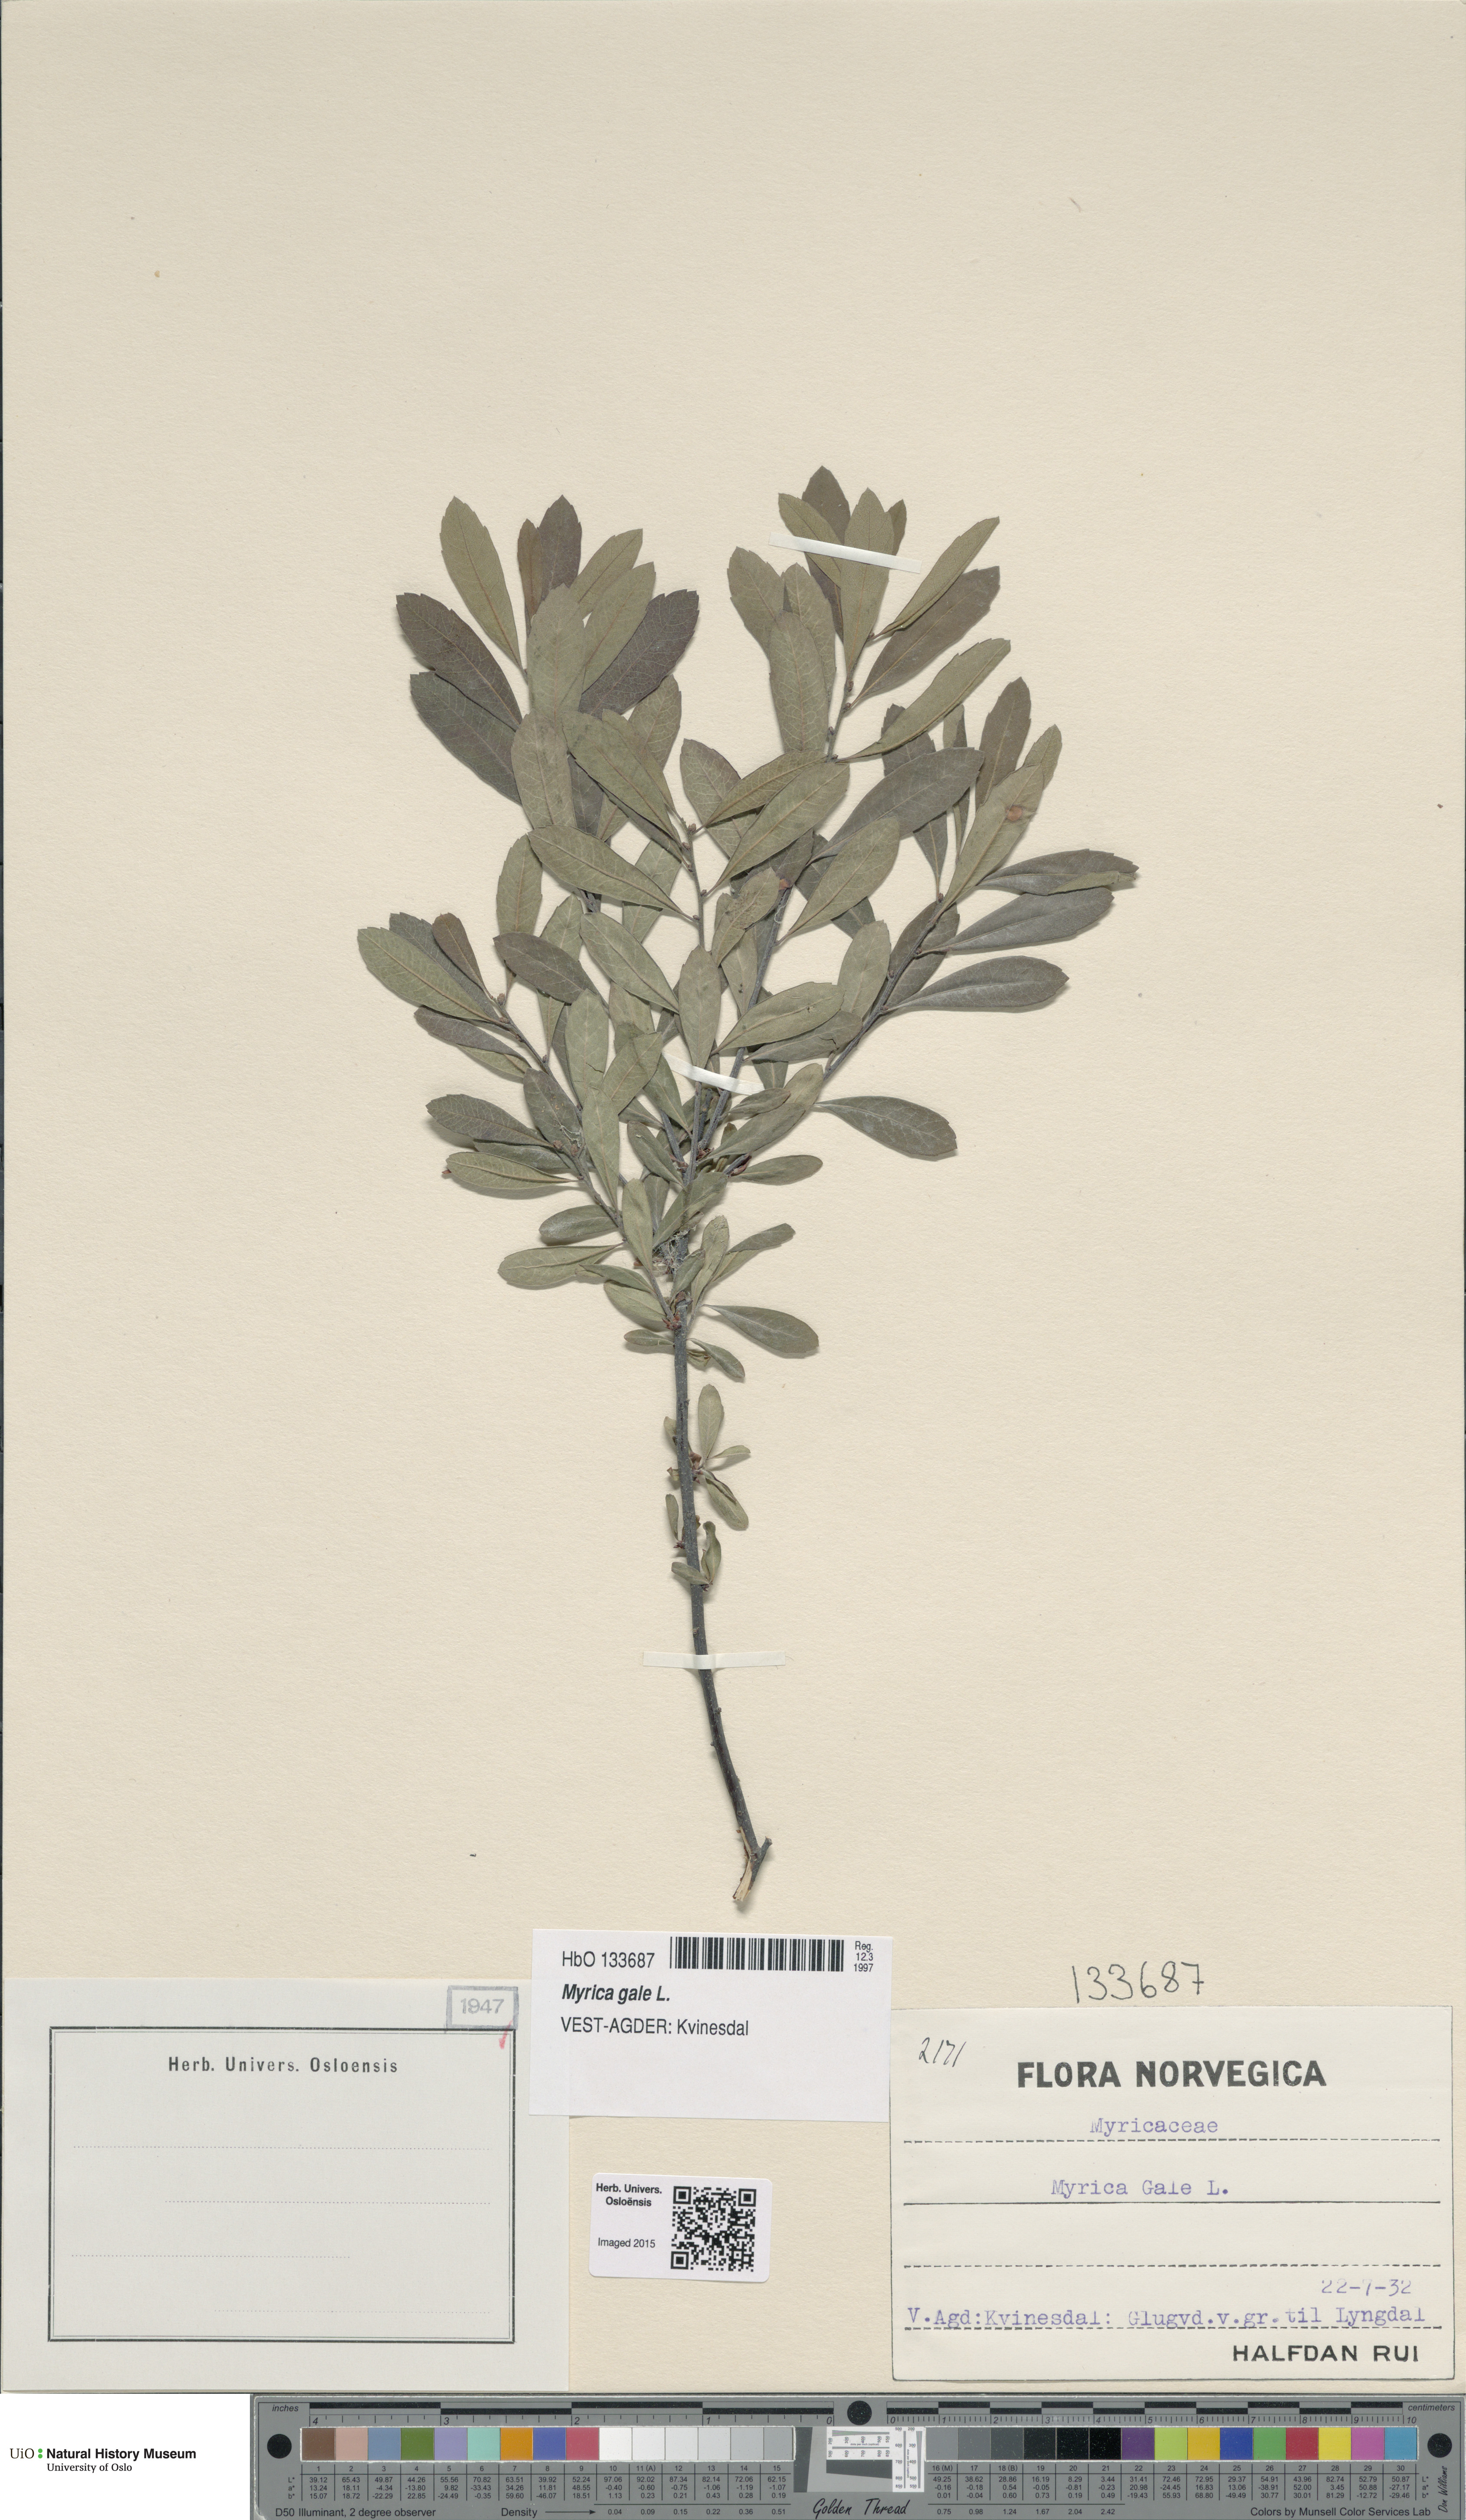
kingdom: Plantae
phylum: Tracheophyta
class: Magnoliopsida
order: Fagales
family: Myricaceae
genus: Myrica
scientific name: Myrica gale
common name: Sweet gale
